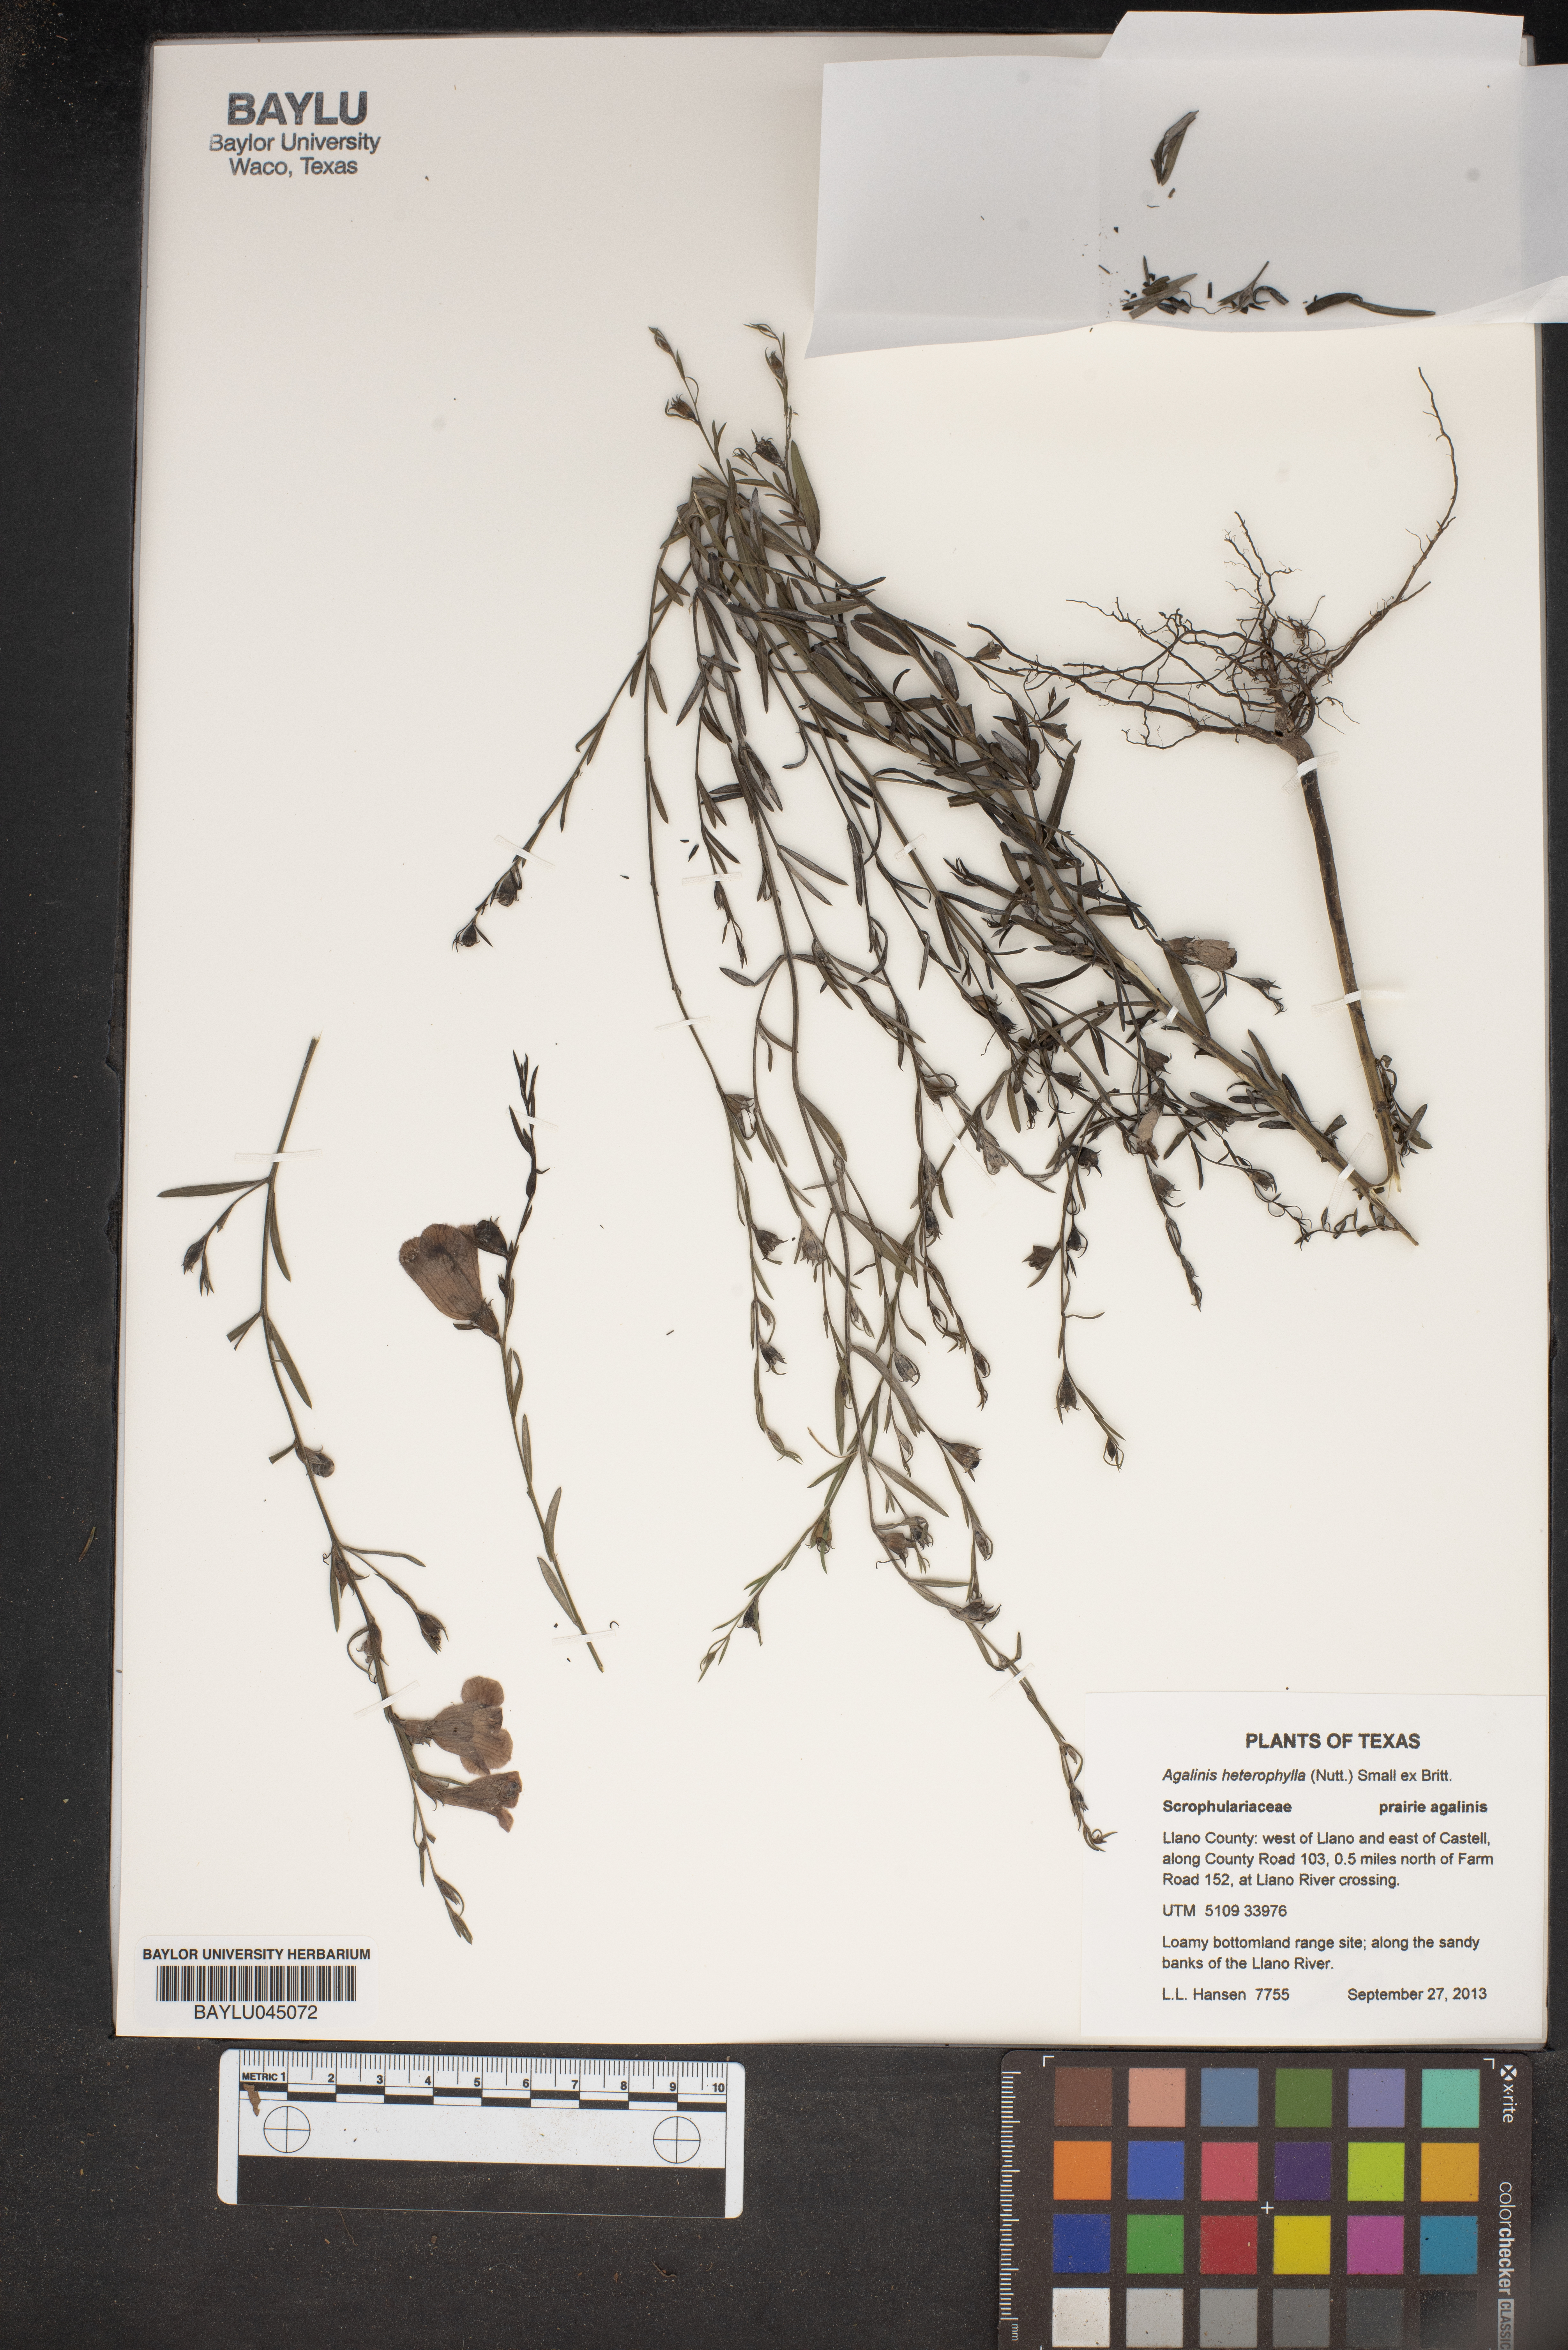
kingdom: Plantae
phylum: Tracheophyta
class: Magnoliopsida
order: Lamiales
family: Orobanchaceae
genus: Agalinis
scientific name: Agalinis heterophylla
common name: Prairie agalinis
